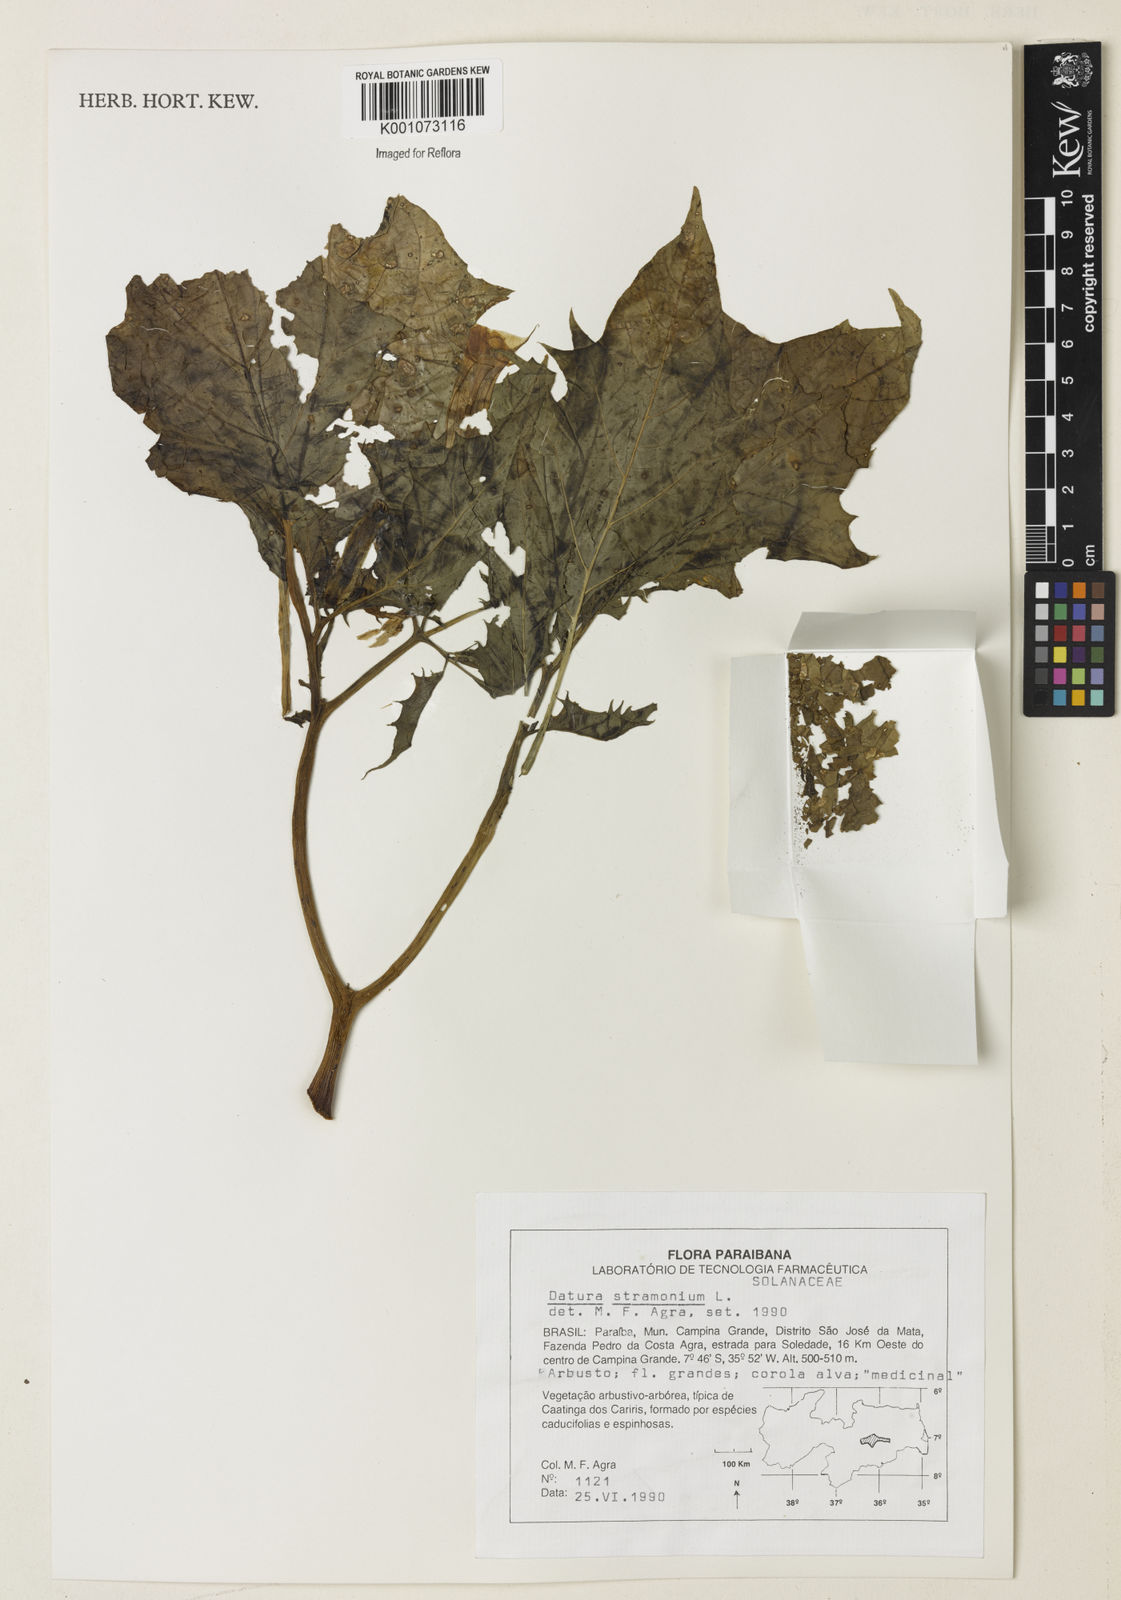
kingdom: Plantae
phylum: Tracheophyta
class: Magnoliopsida
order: Solanales
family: Solanaceae
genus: Datura
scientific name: Datura stramonium
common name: Thorn-apple
